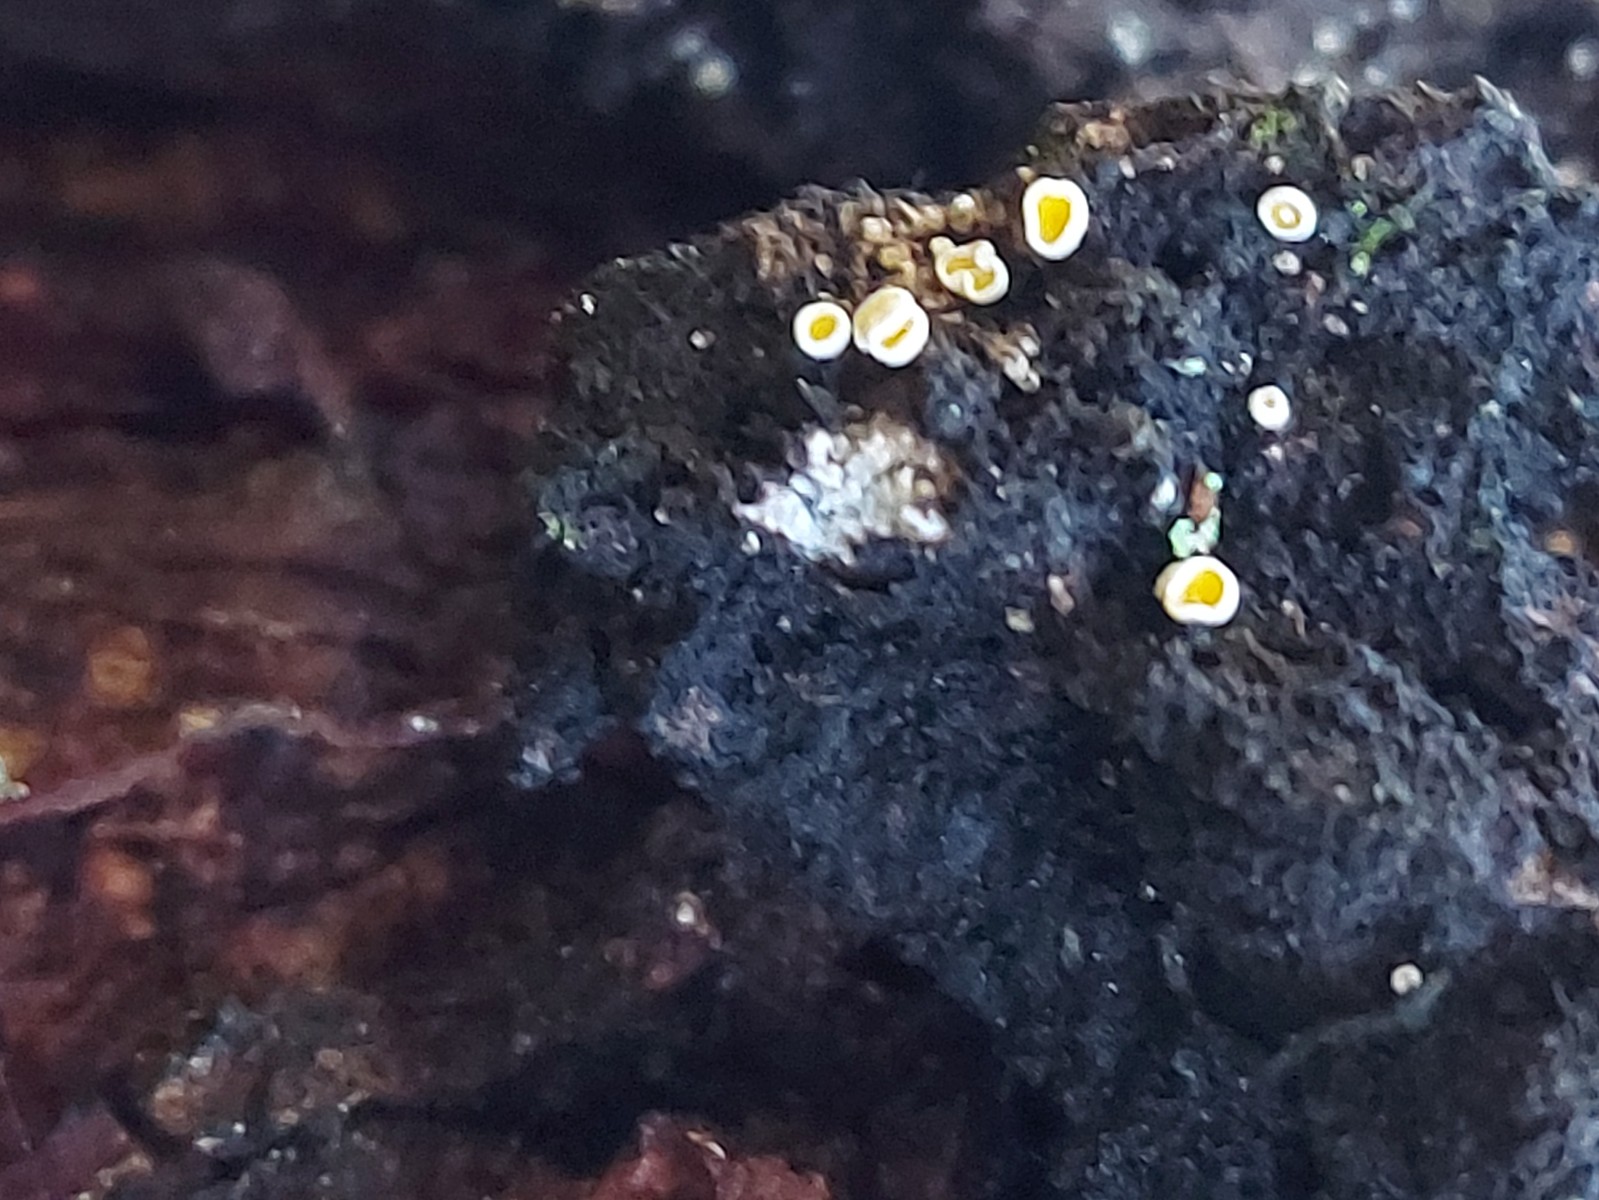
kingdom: Fungi
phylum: Ascomycota
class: Leotiomycetes
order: Helotiales
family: Lachnaceae
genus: Lachnellula
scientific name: Lachnellula
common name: frynseskive
